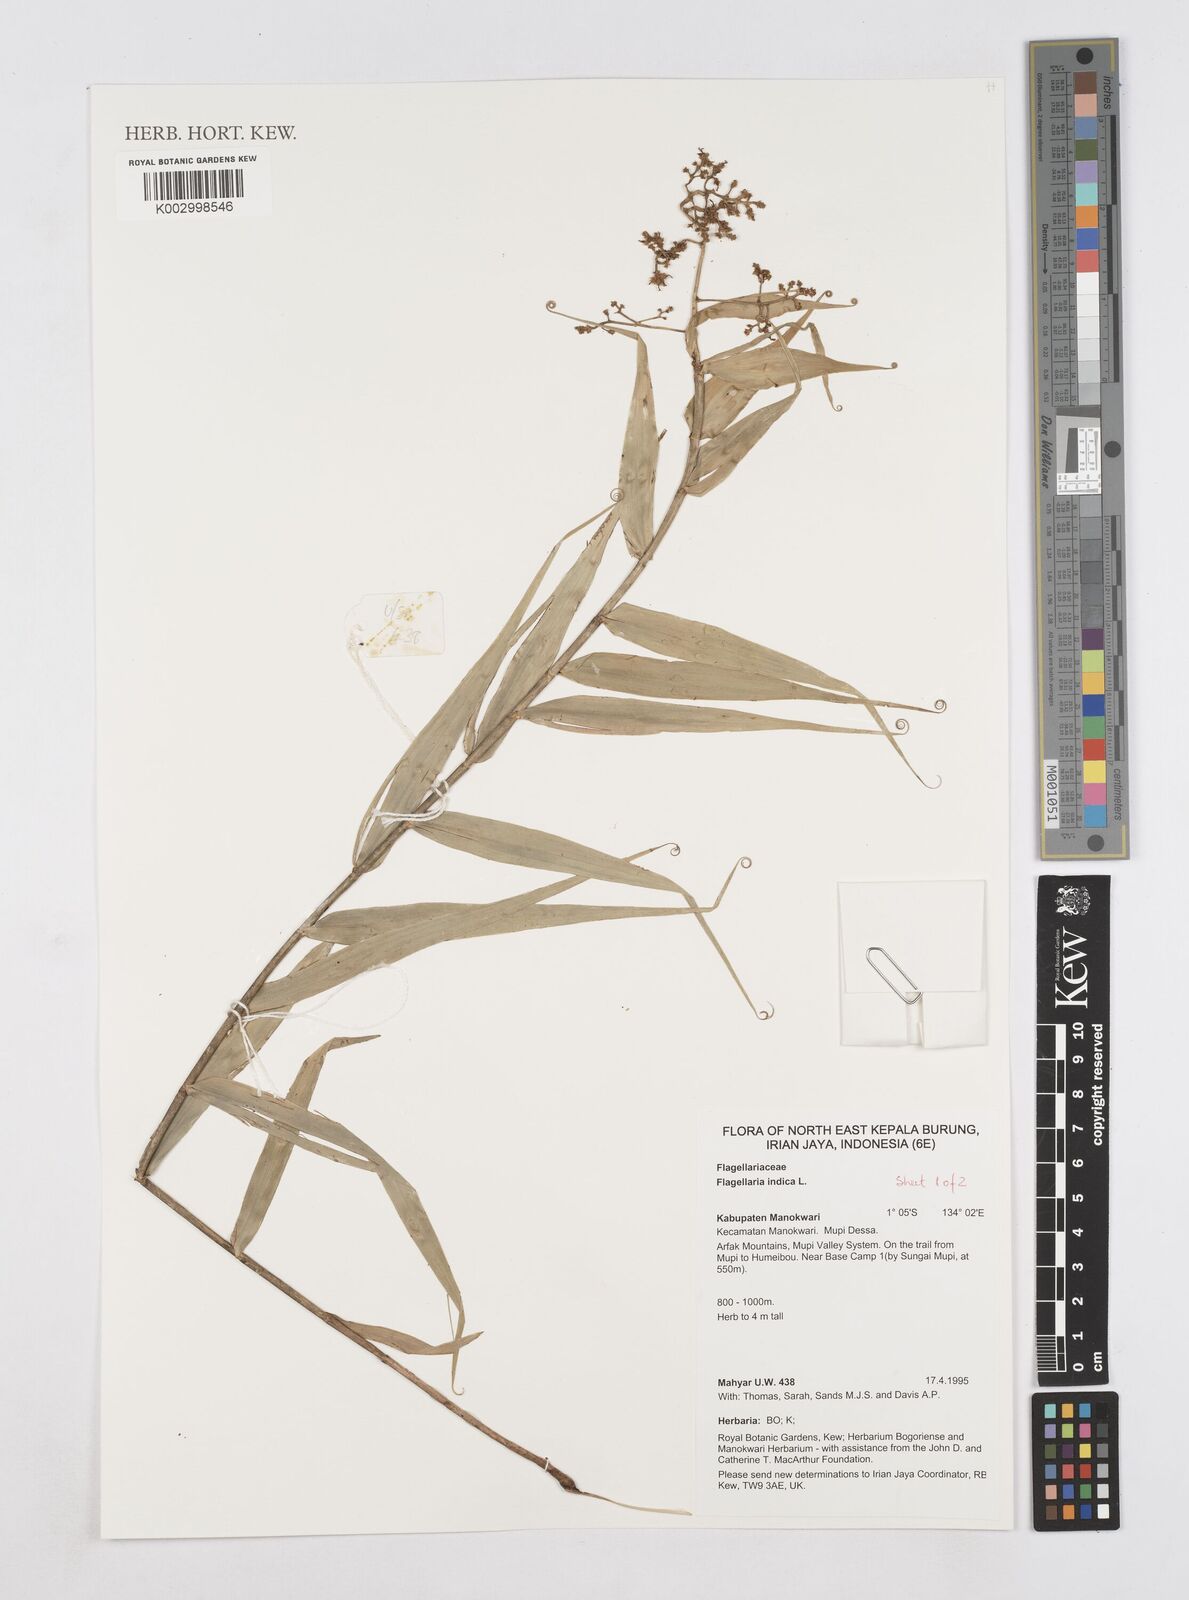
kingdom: Plantae
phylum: Tracheophyta
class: Liliopsida
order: Poales
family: Flagellariaceae
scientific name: Flagellariaceae
